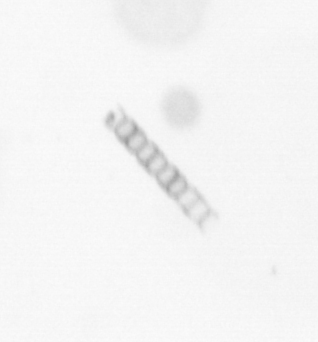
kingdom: Chromista
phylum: Ochrophyta
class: Bacillariophyceae
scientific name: Bacillariophyceae
